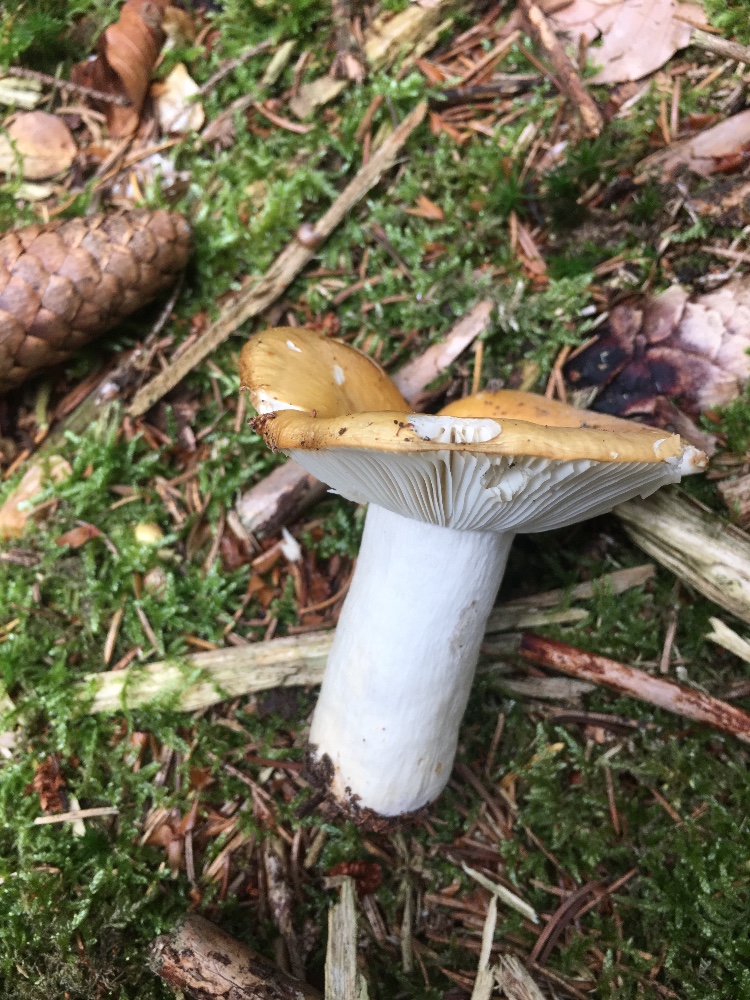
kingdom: Fungi
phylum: Basidiomycota
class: Agaricomycetes
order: Russulales
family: Russulaceae
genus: Russula
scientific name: Russula ochroleuca
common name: okkergul skørhat
